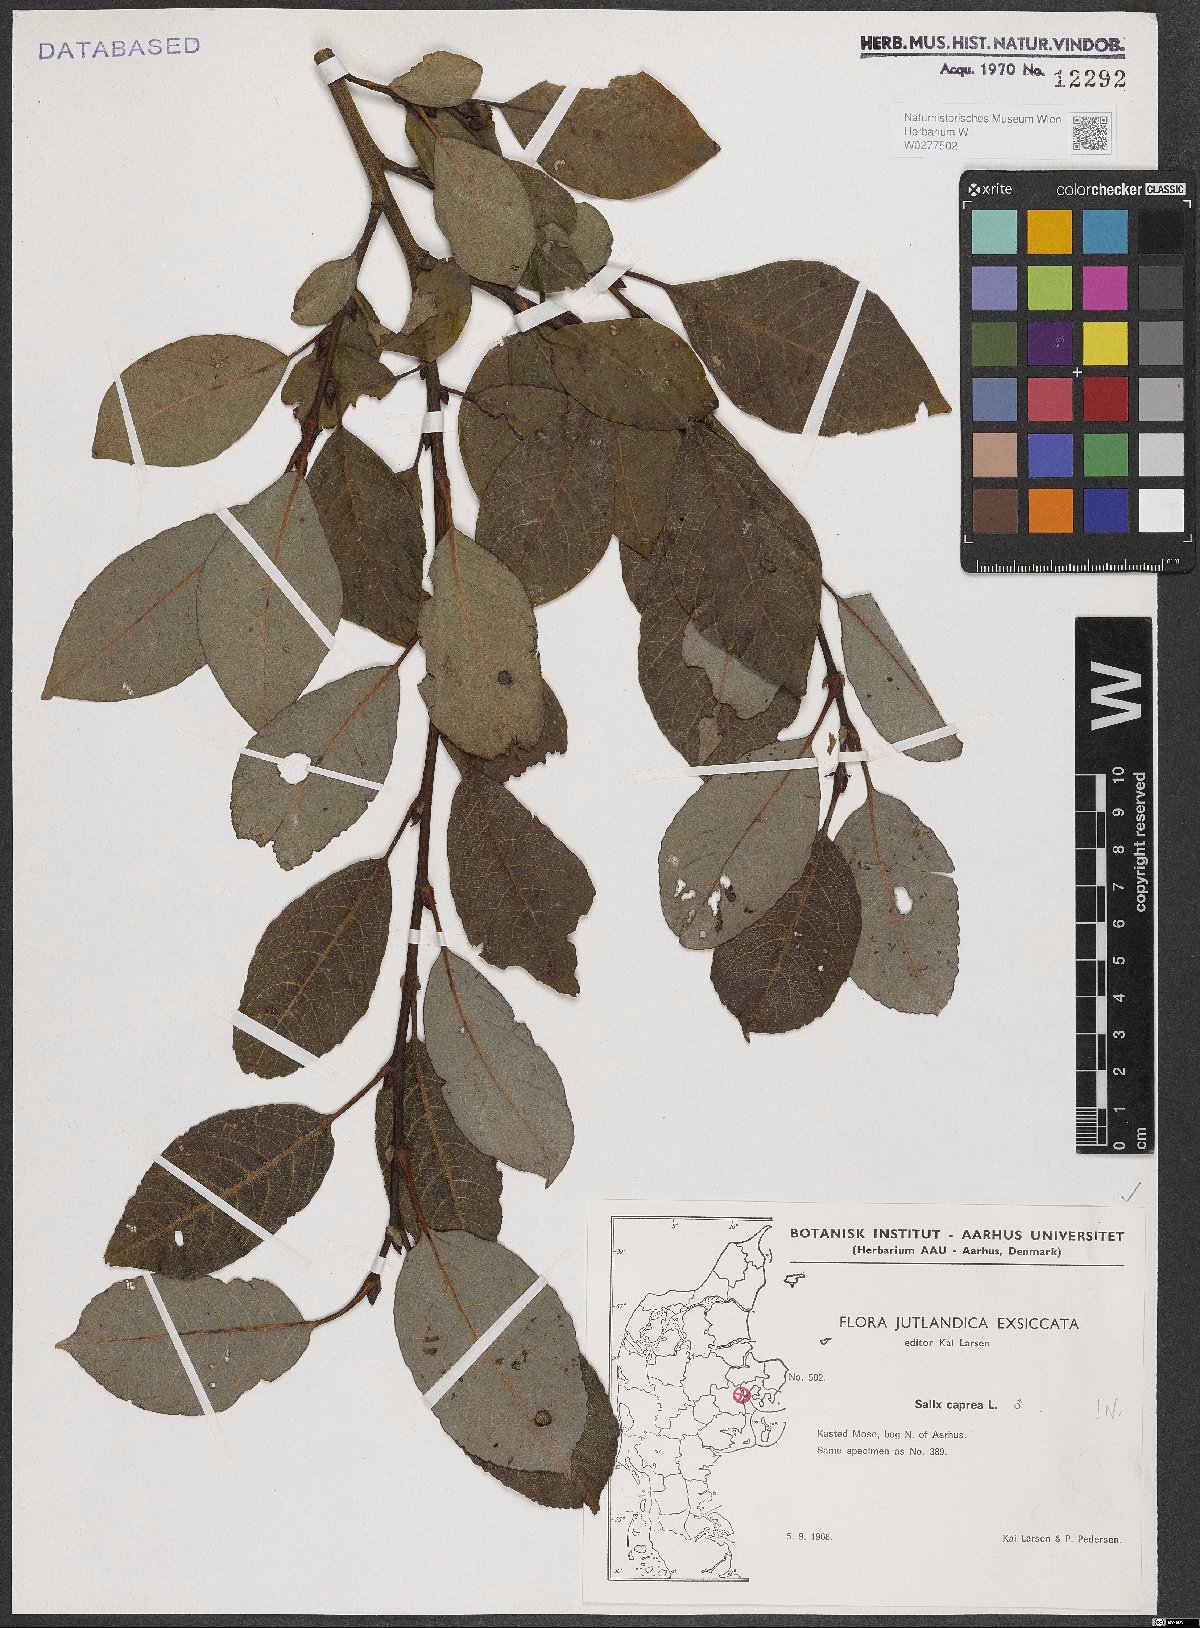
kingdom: Plantae
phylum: Tracheophyta
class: Magnoliopsida
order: Malpighiales
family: Salicaceae
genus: Salix
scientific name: Salix caprea
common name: Goat willow
